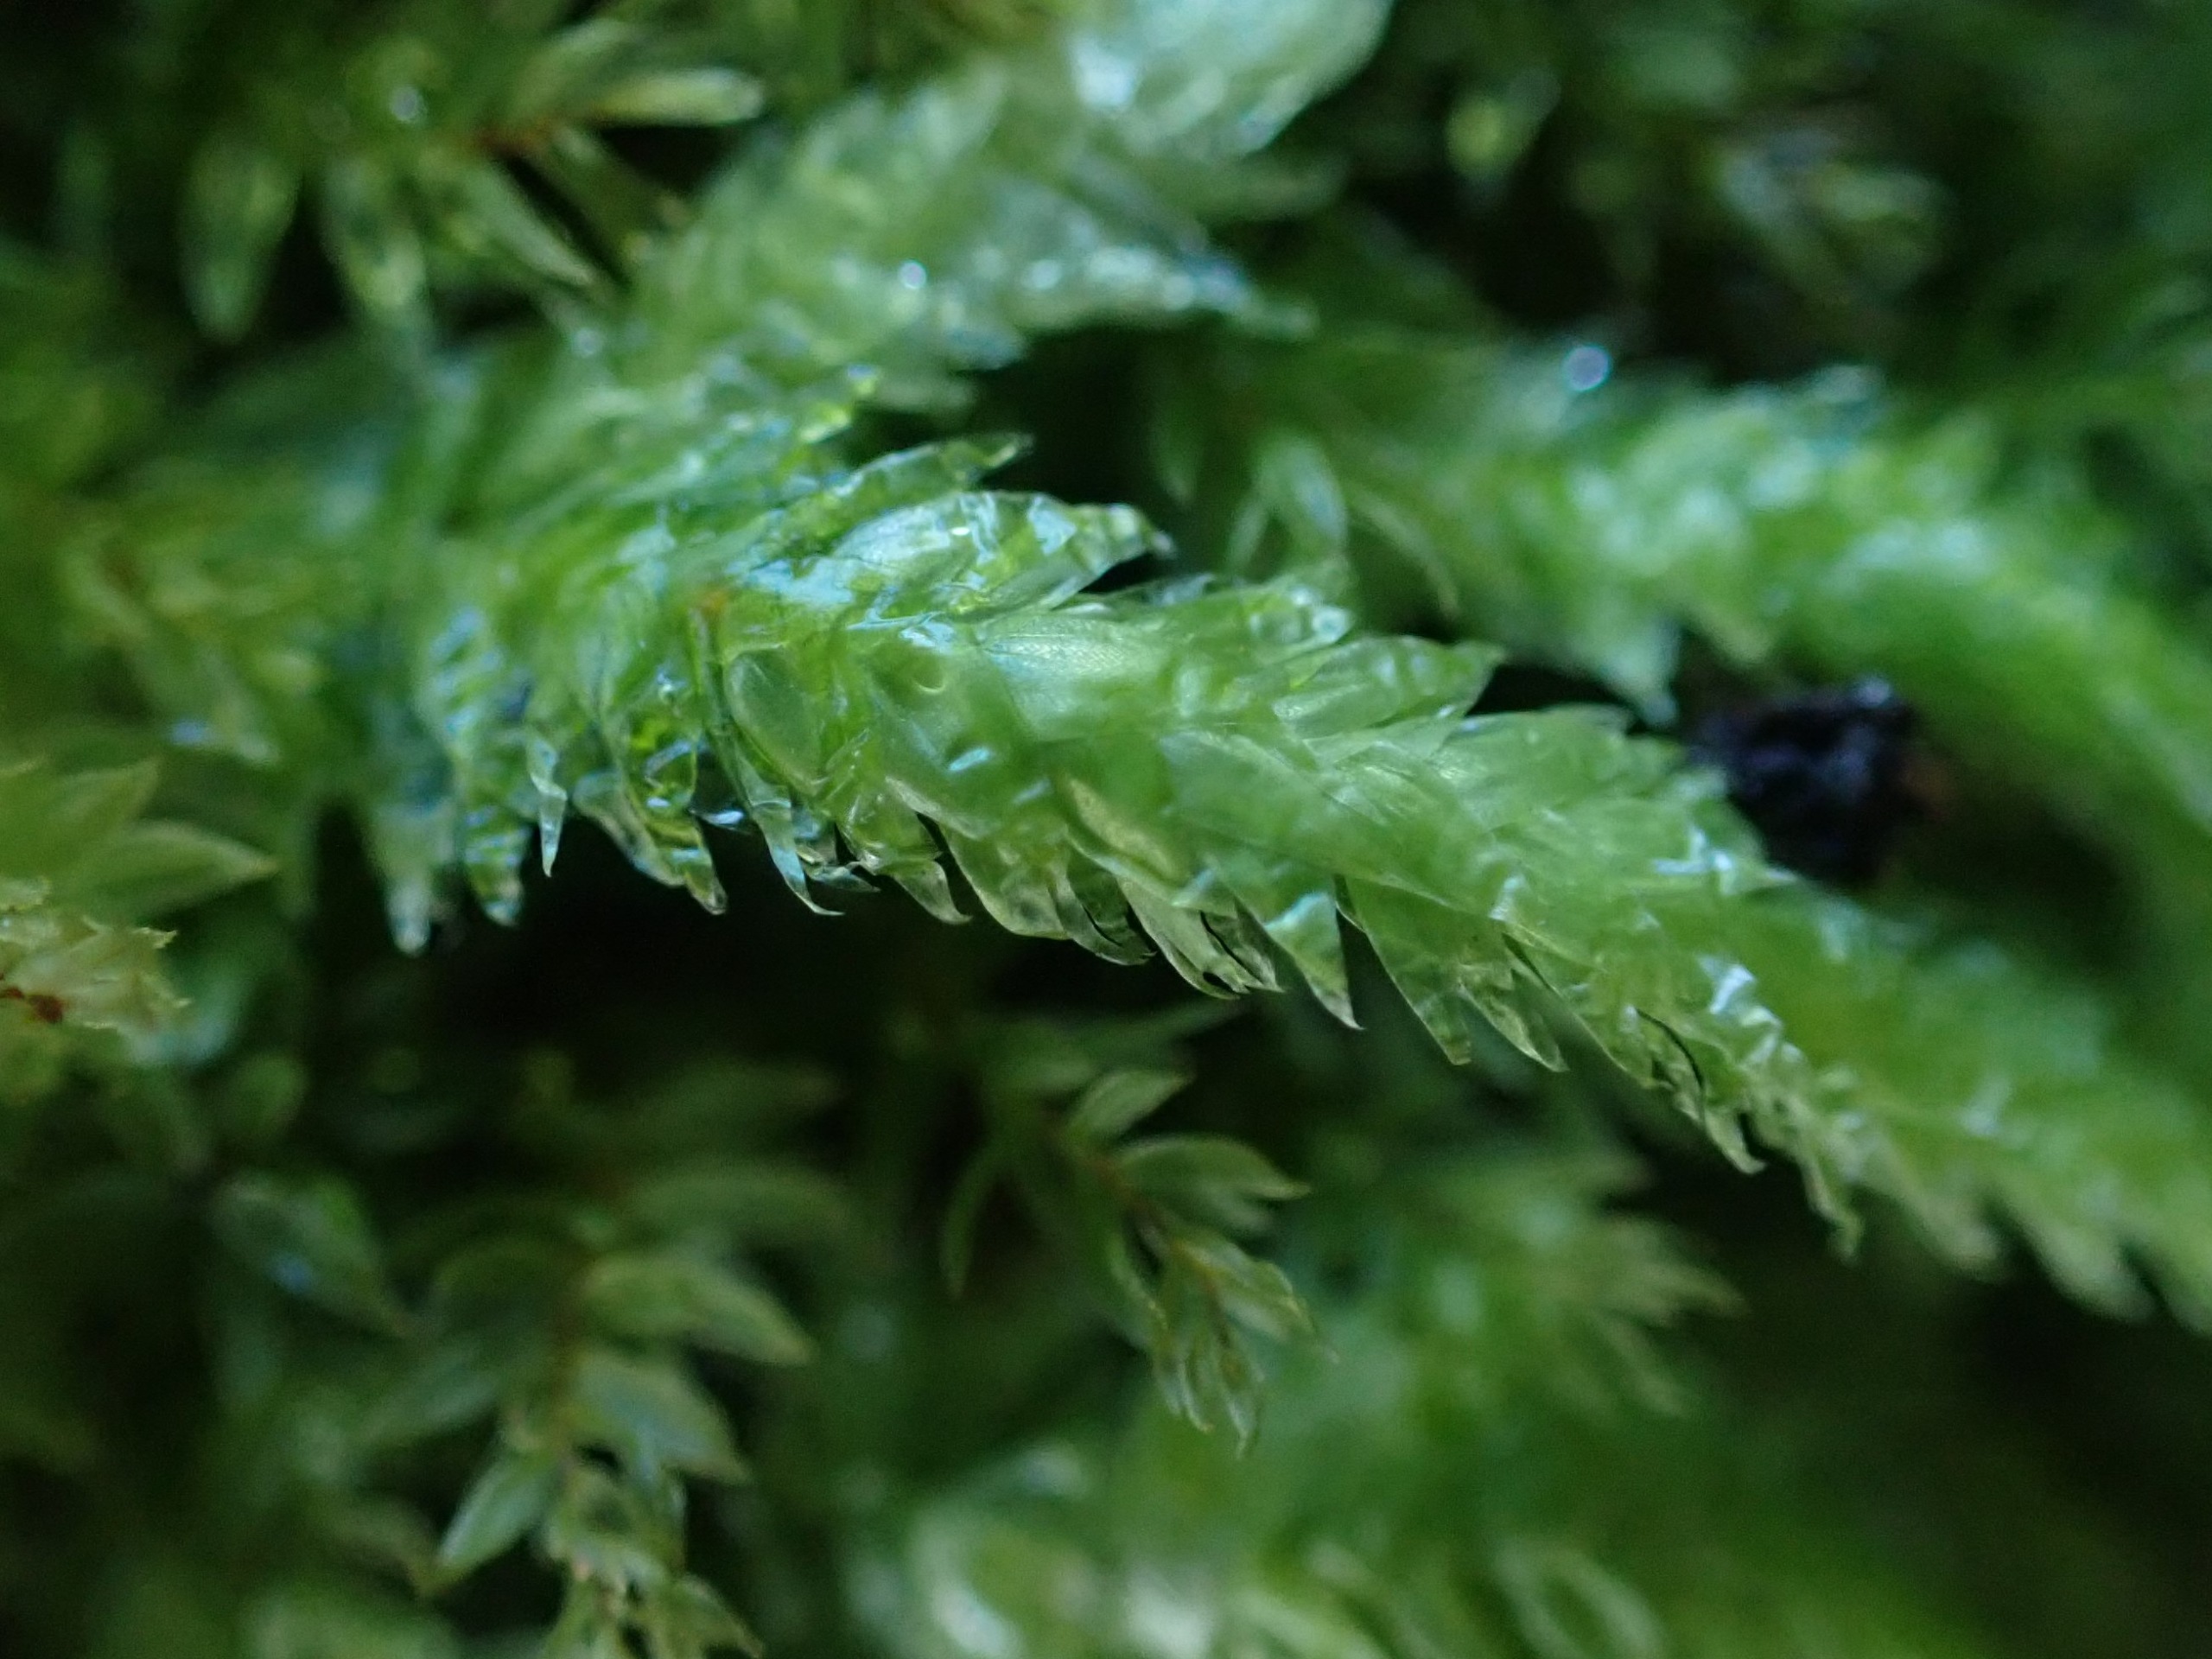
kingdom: Plantae
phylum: Bryophyta
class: Bryopsida
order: Hypnales
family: Plagiotheciaceae
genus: Plagiothecium
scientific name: Plagiothecium undulatum
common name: Bølget tæppemos
